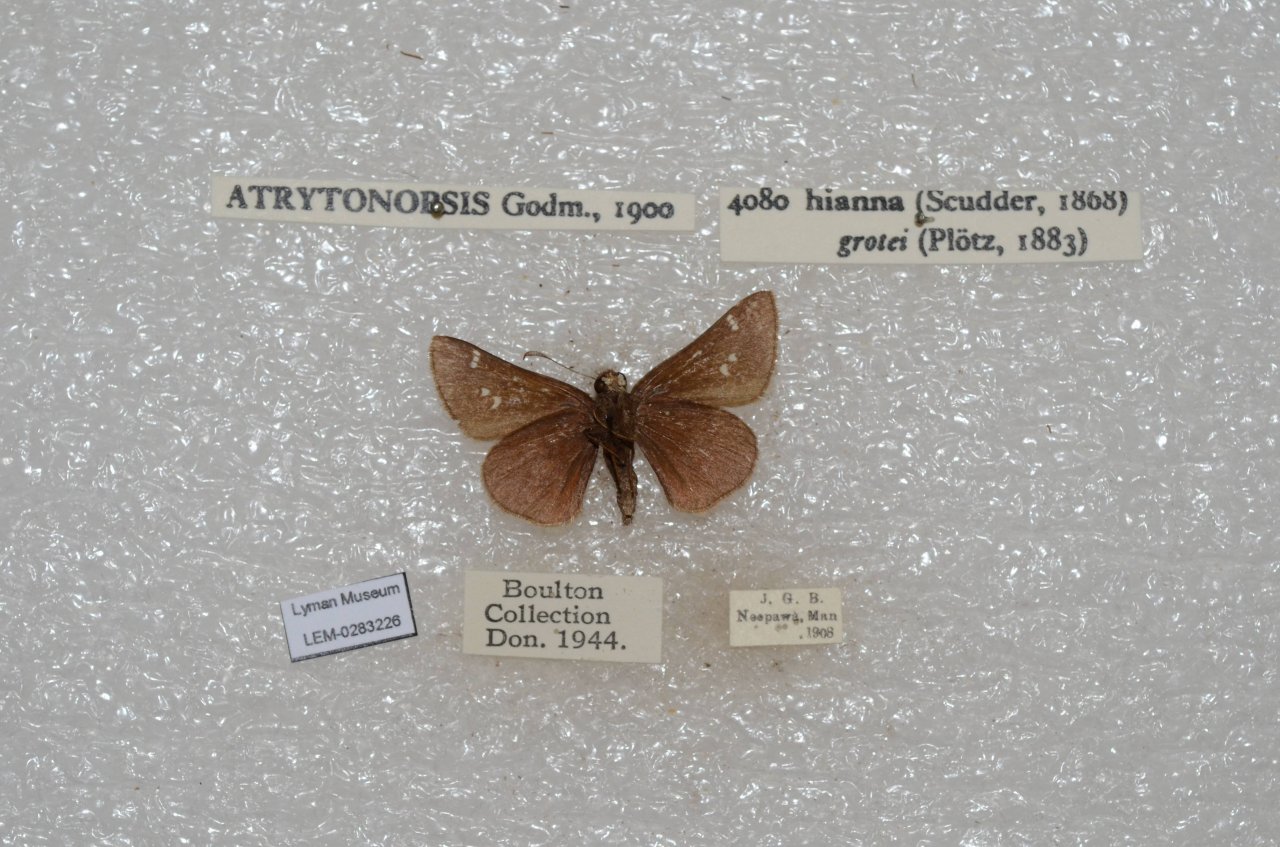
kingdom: Animalia
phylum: Arthropoda
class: Insecta
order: Lepidoptera
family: Hesperiidae
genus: Atrytonopsis
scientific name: Atrytonopsis hianna
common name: Dusted Skipper
